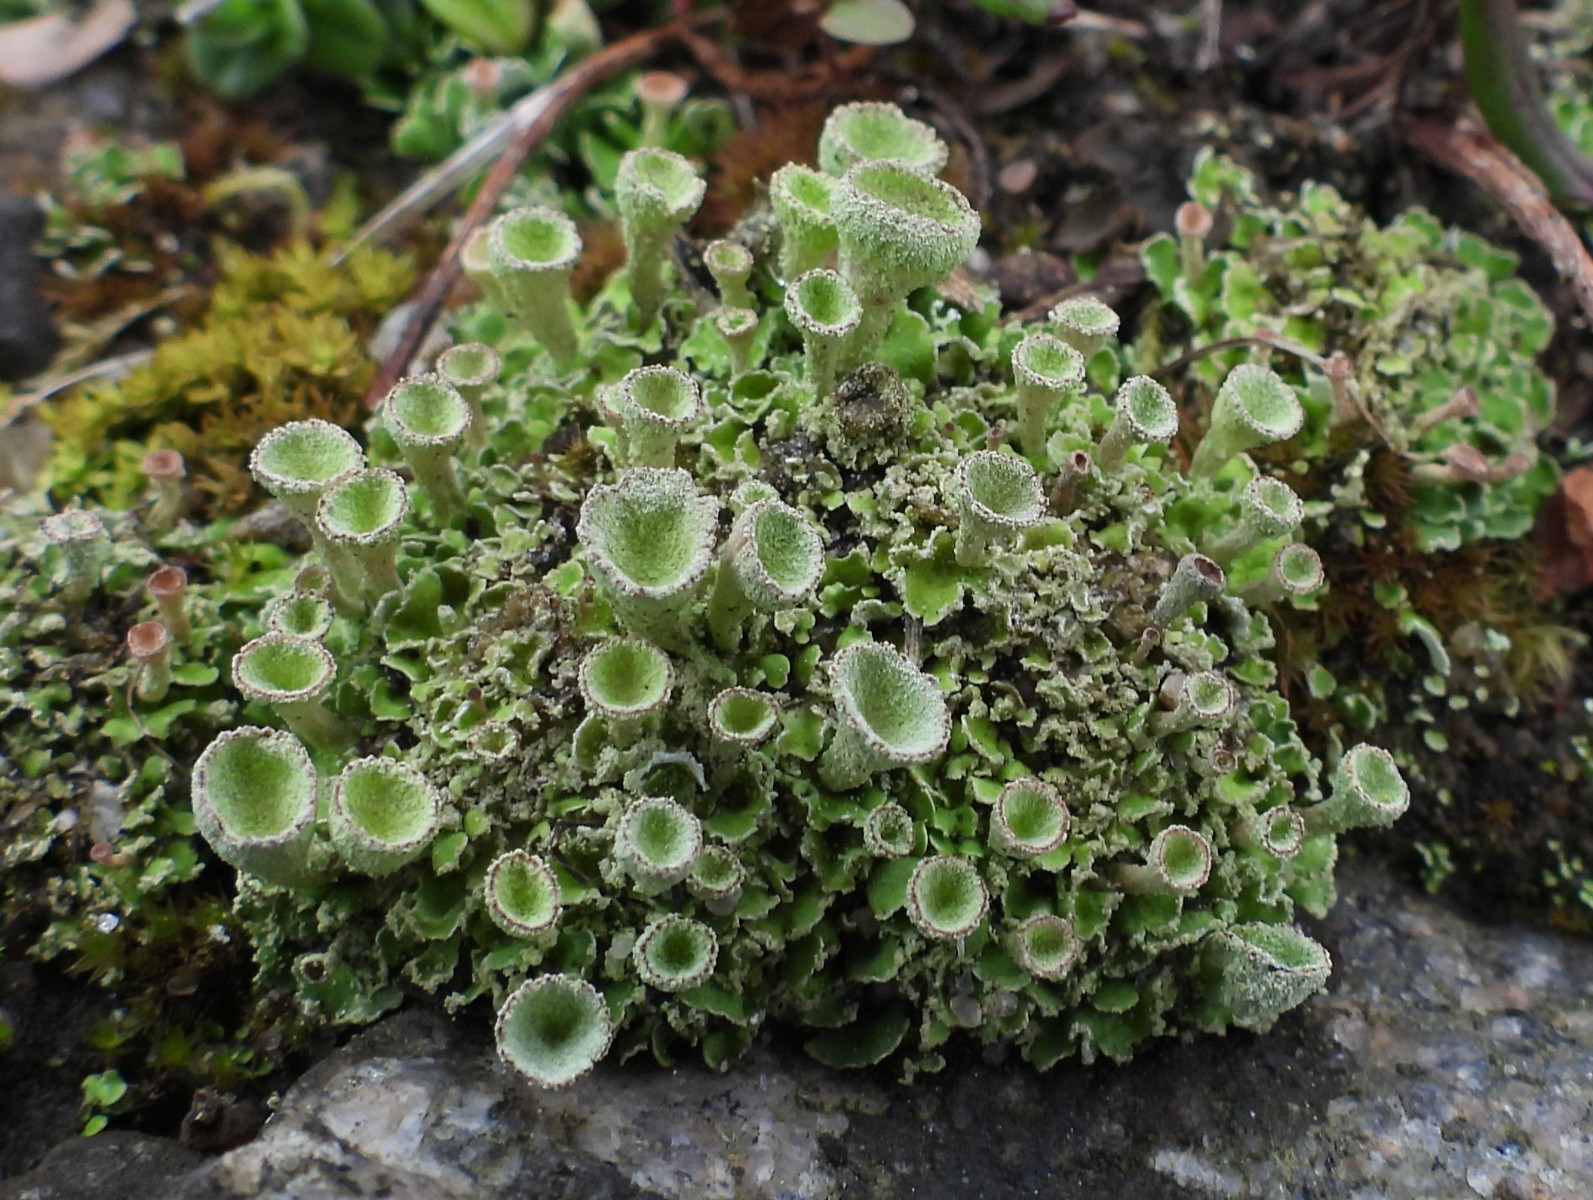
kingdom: Fungi
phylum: Ascomycota
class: Lecanoromycetes
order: Lecanorales
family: Cladoniaceae
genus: Cladonia
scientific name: Cladonia humilis
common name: lav bægerlav
